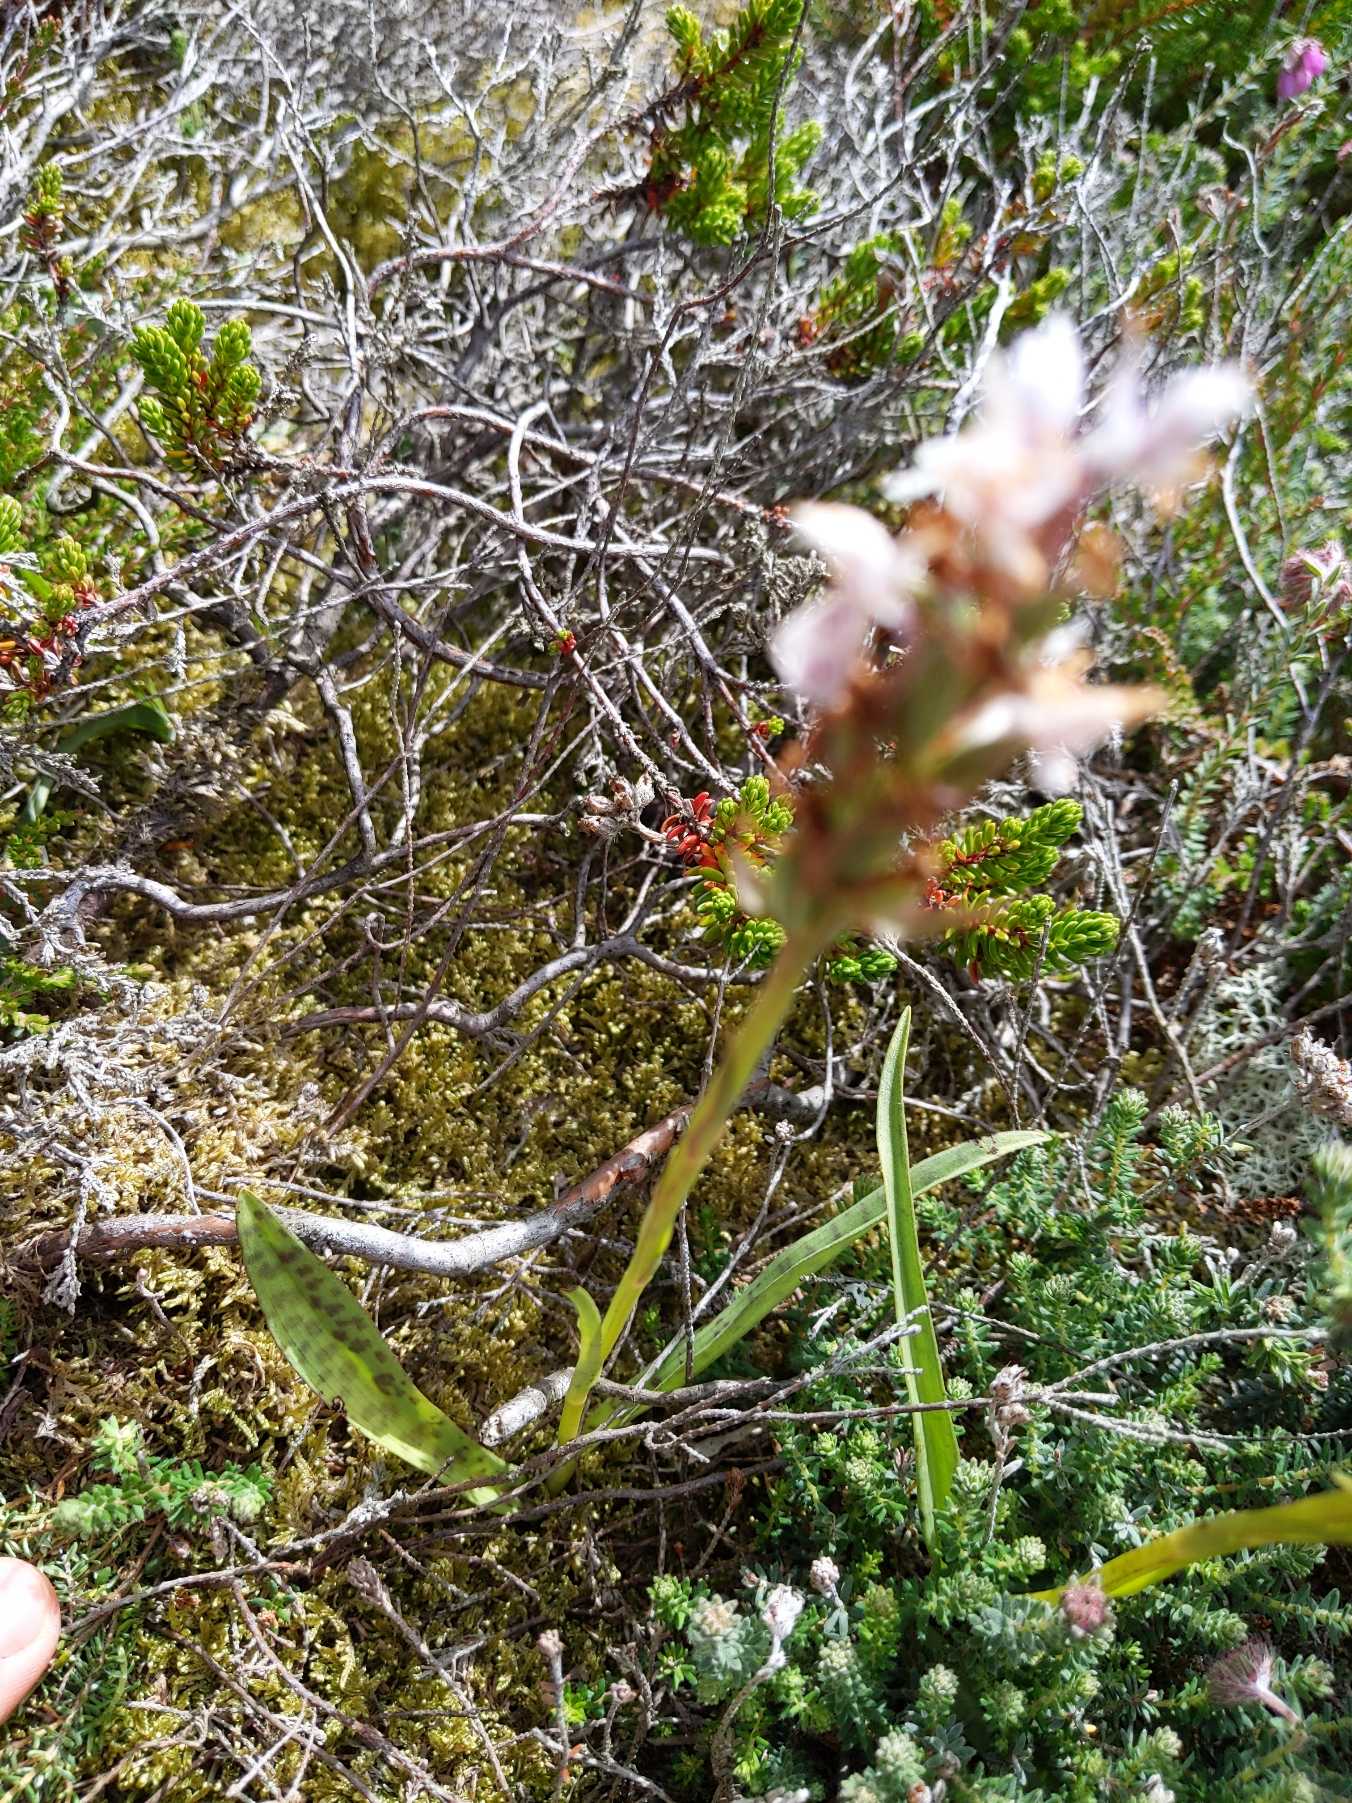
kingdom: Plantae
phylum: Tracheophyta
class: Liliopsida
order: Asparagales
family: Orchidaceae
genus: Dactylorhiza
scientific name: Dactylorhiza maculata
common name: Plettet gøgeurt
